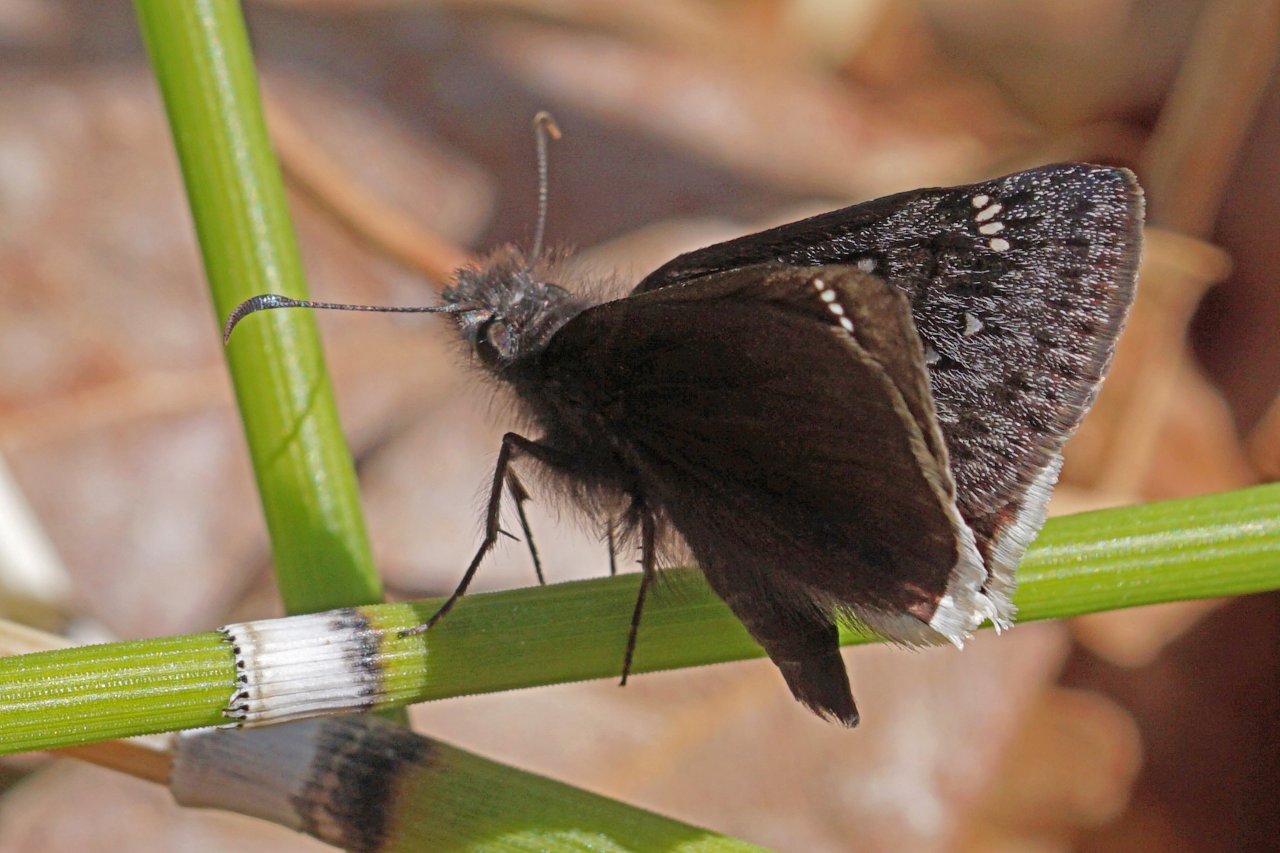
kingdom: Animalia
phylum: Arthropoda
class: Insecta
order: Lepidoptera
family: Hesperiidae
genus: Erynnis
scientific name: Erynnis funeralis
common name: Funereal Duskywing
